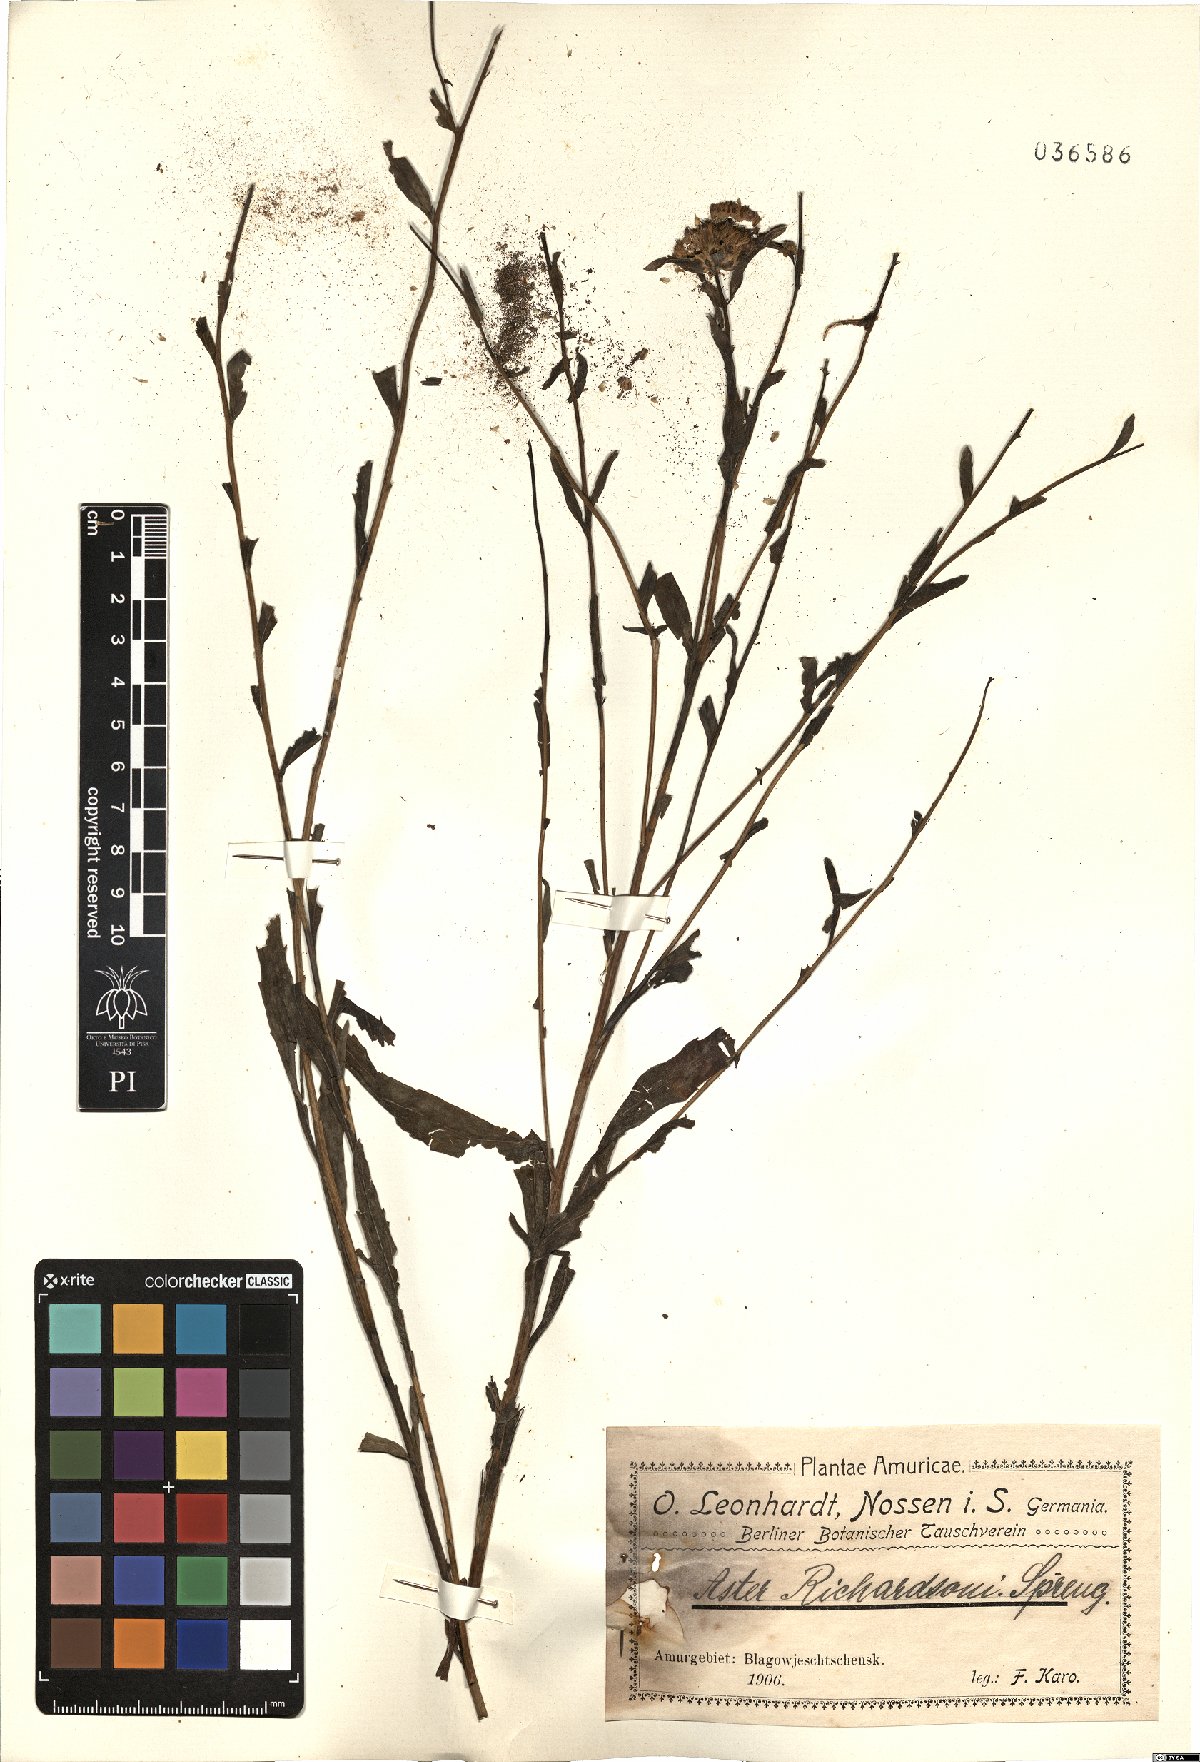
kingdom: Plantae
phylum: Tracheophyta
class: Magnoliopsida
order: Asterales
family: Asteraceae
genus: Eurybia
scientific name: Eurybia sibirica
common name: Arctic aster
